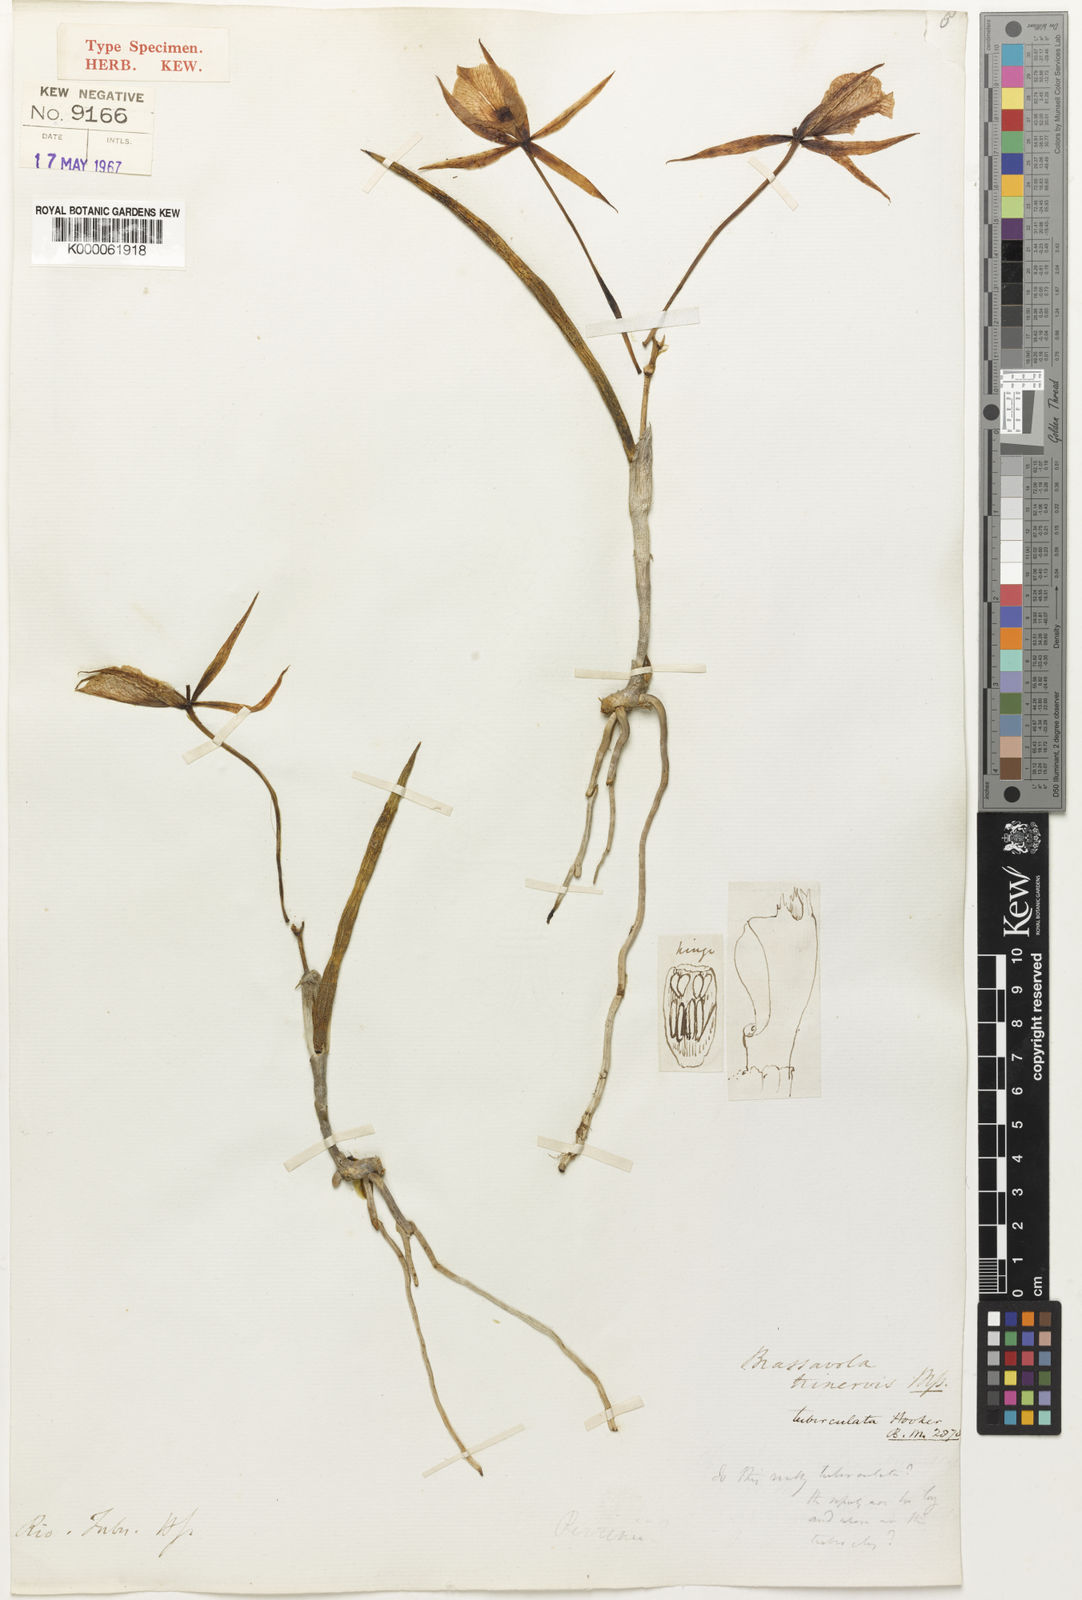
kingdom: Plantae
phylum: Tracheophyta
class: Liliopsida
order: Asparagales
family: Orchidaceae
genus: Brassavola
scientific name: Brassavola
